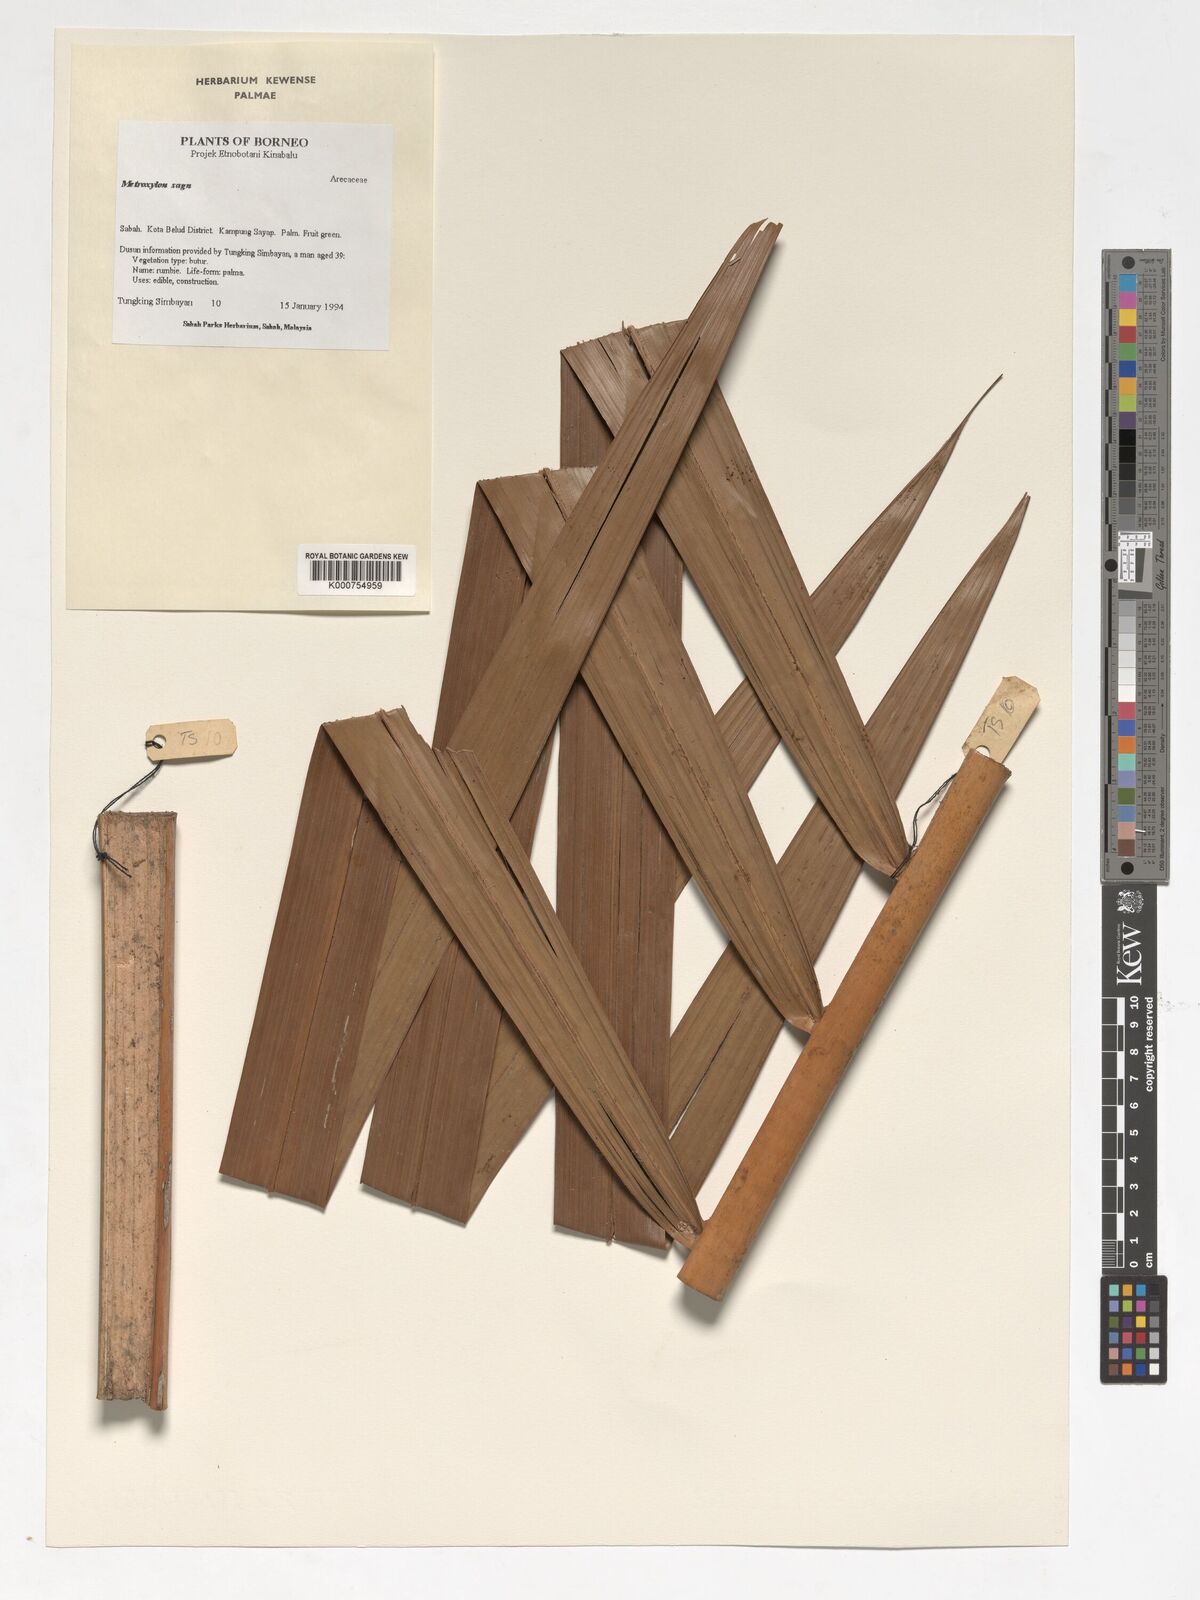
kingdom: Plantae
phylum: Tracheophyta
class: Liliopsida
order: Arecales
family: Arecaceae
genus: Metroxylon
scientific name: Metroxylon sagu
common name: Sago palm
